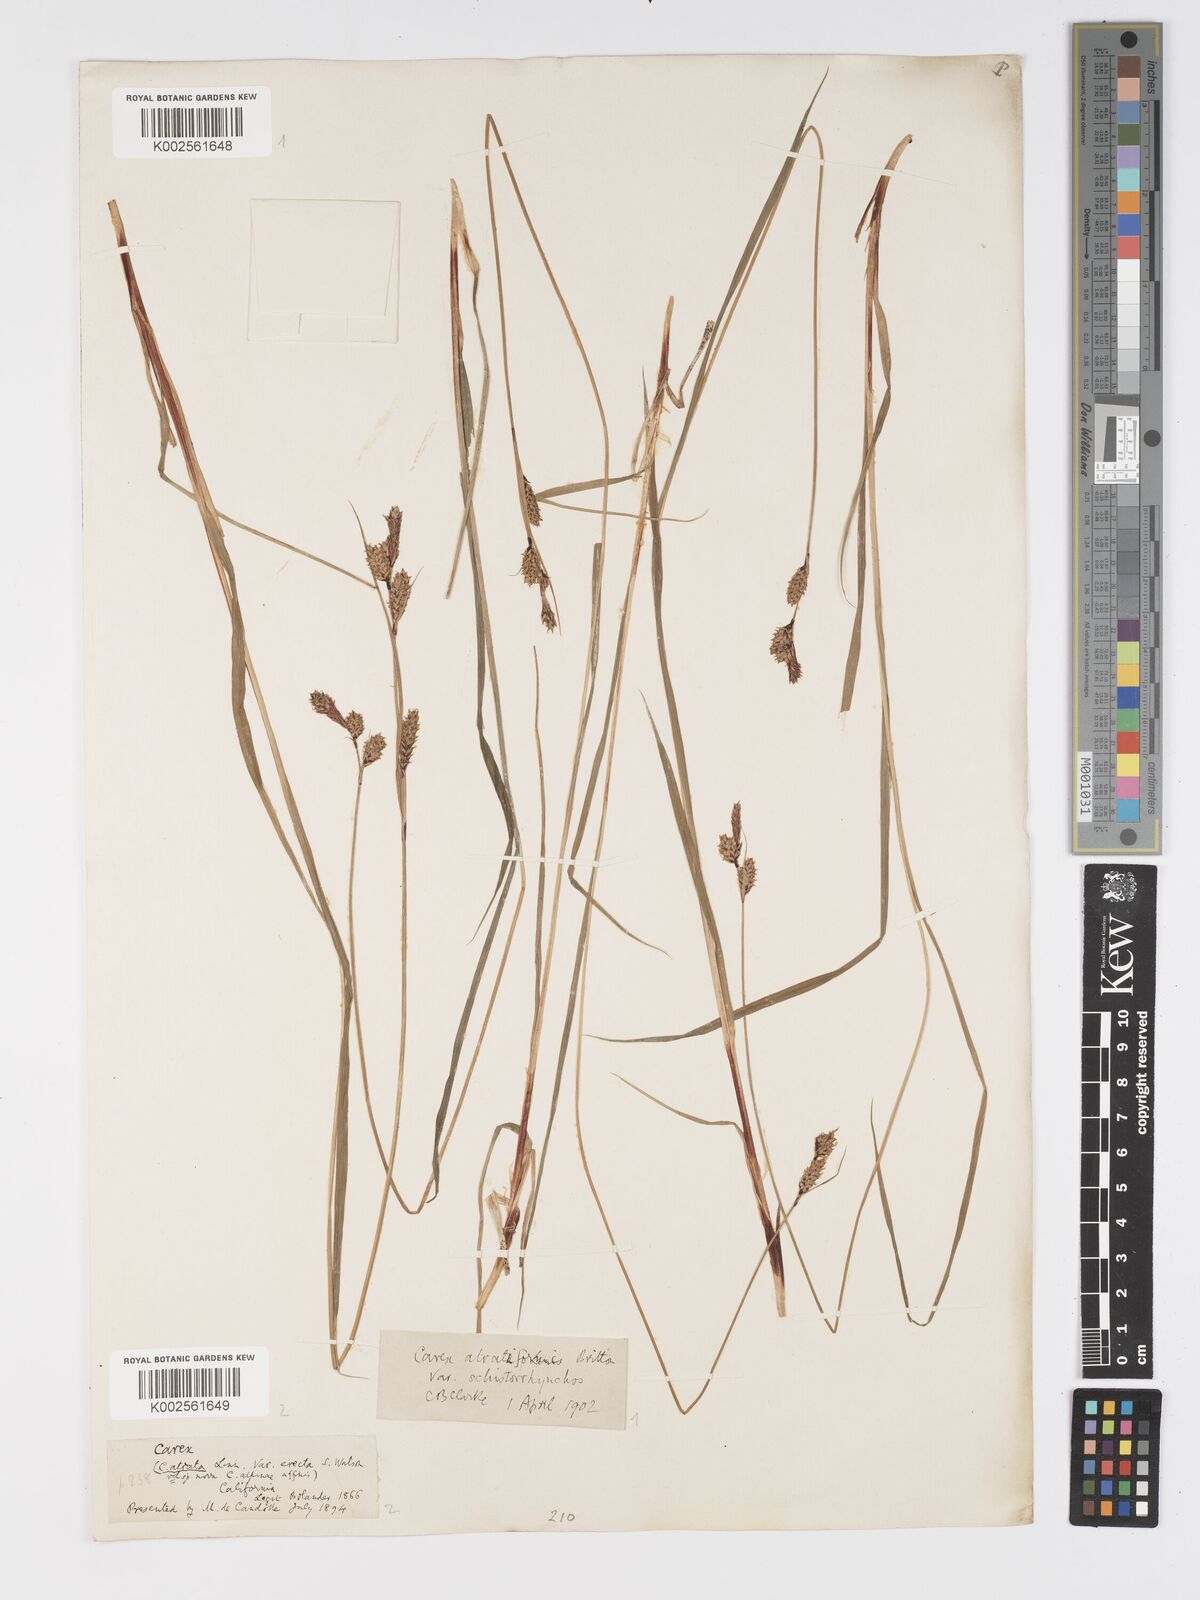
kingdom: Plantae
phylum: Tracheophyta
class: Liliopsida
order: Poales
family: Cyperaceae
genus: Carex
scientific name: Carex heteroneura
